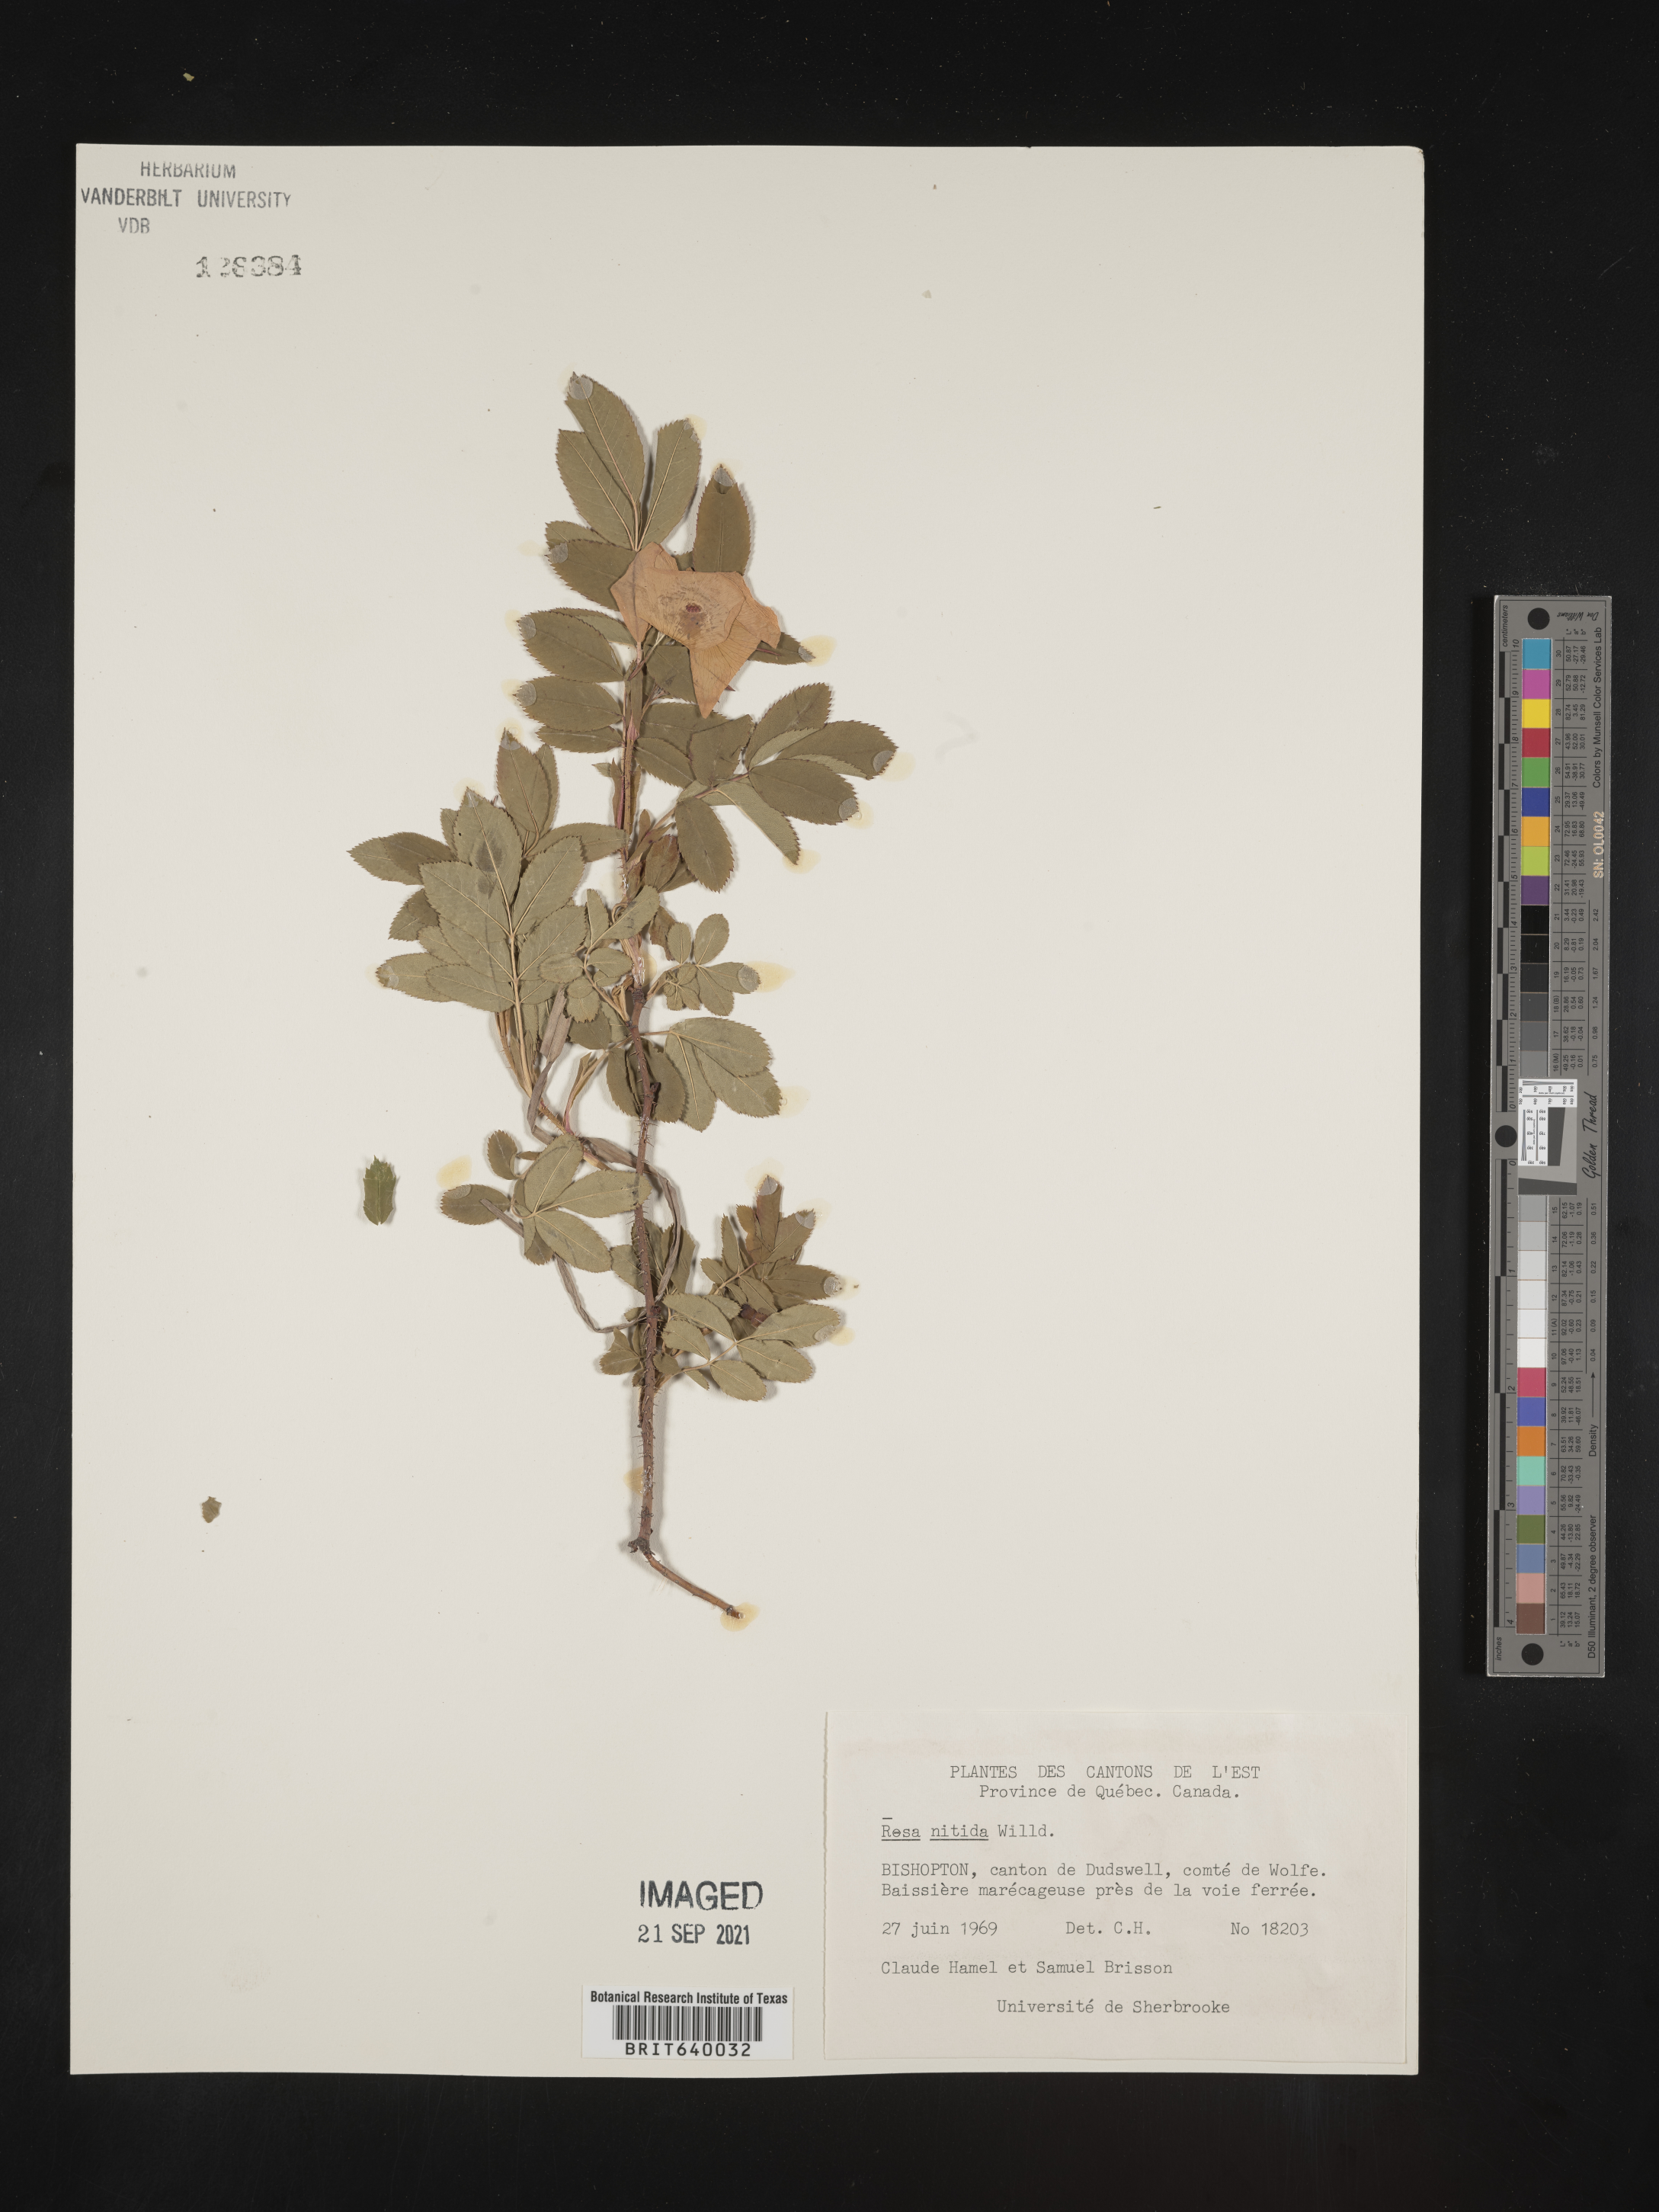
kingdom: Plantae
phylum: Tracheophyta
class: Magnoliopsida
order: Rosales
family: Rosaceae
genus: Rosa
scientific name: Rosa
